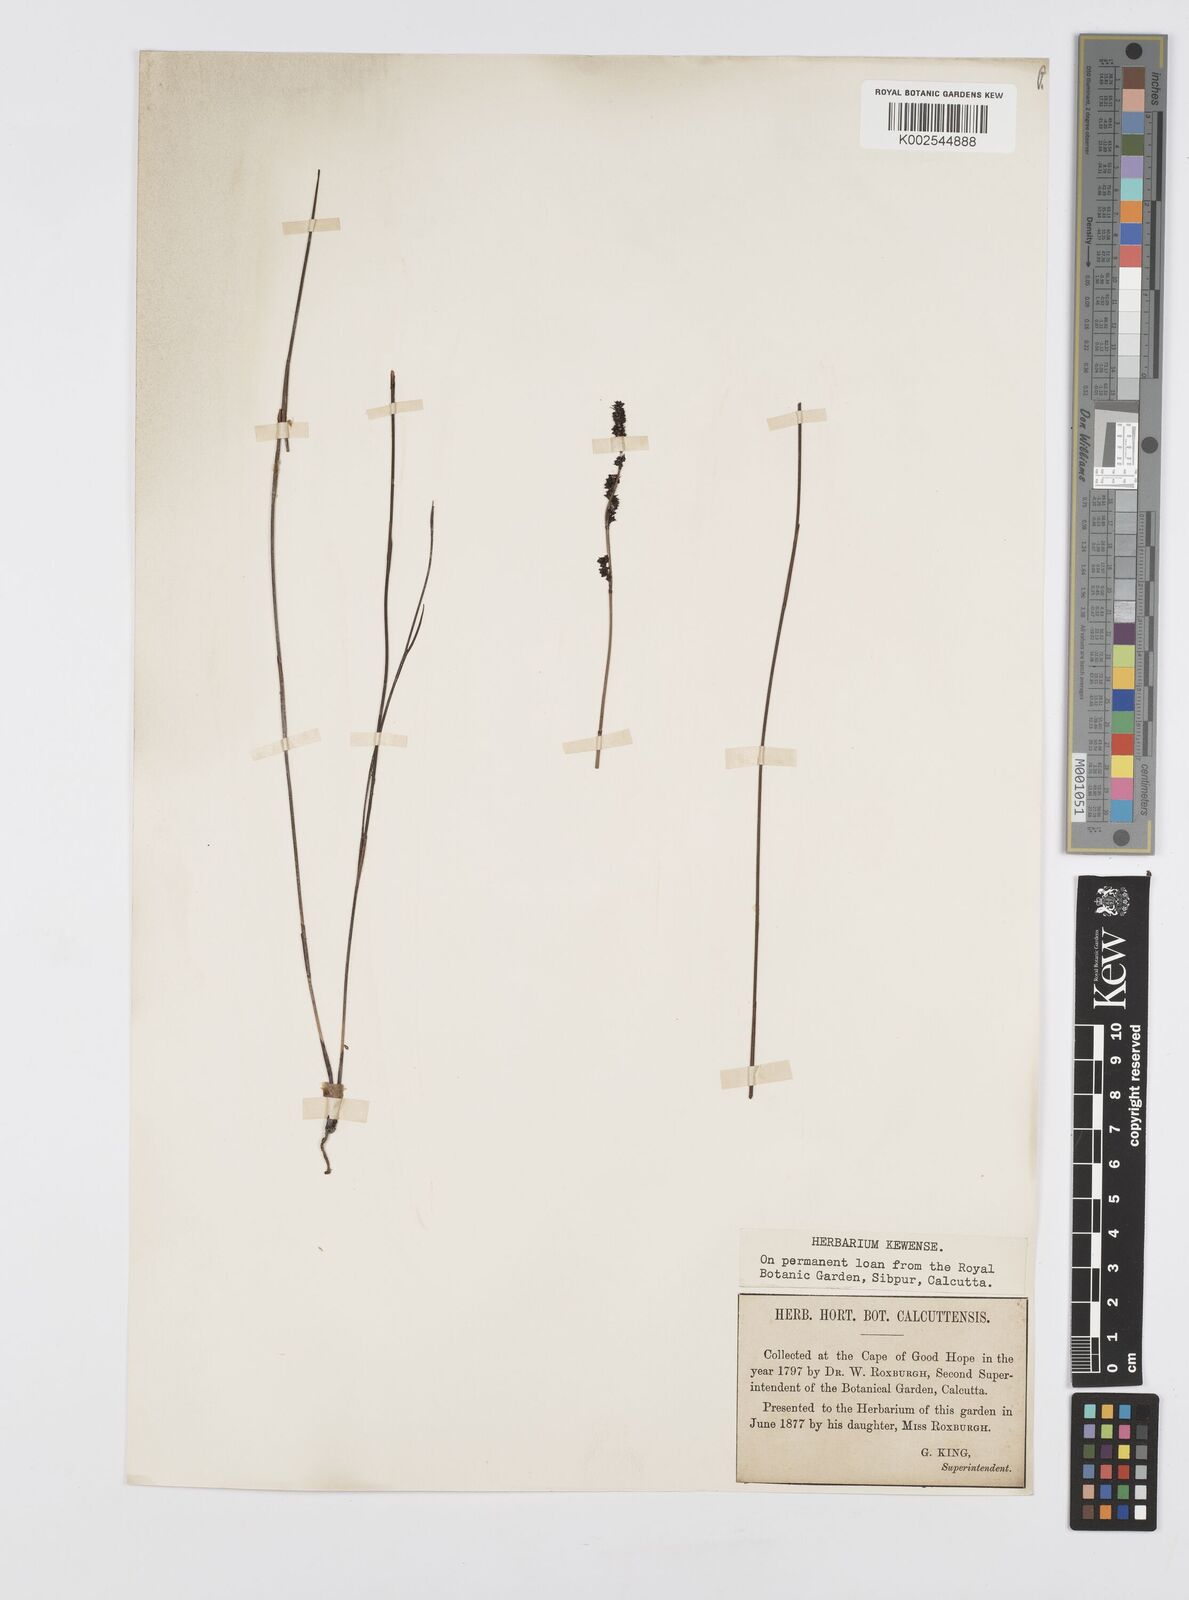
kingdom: Plantae
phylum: Tracheophyta
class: Liliopsida
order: Poales
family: Restionaceae
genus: Elegia
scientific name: Elegia nuda
